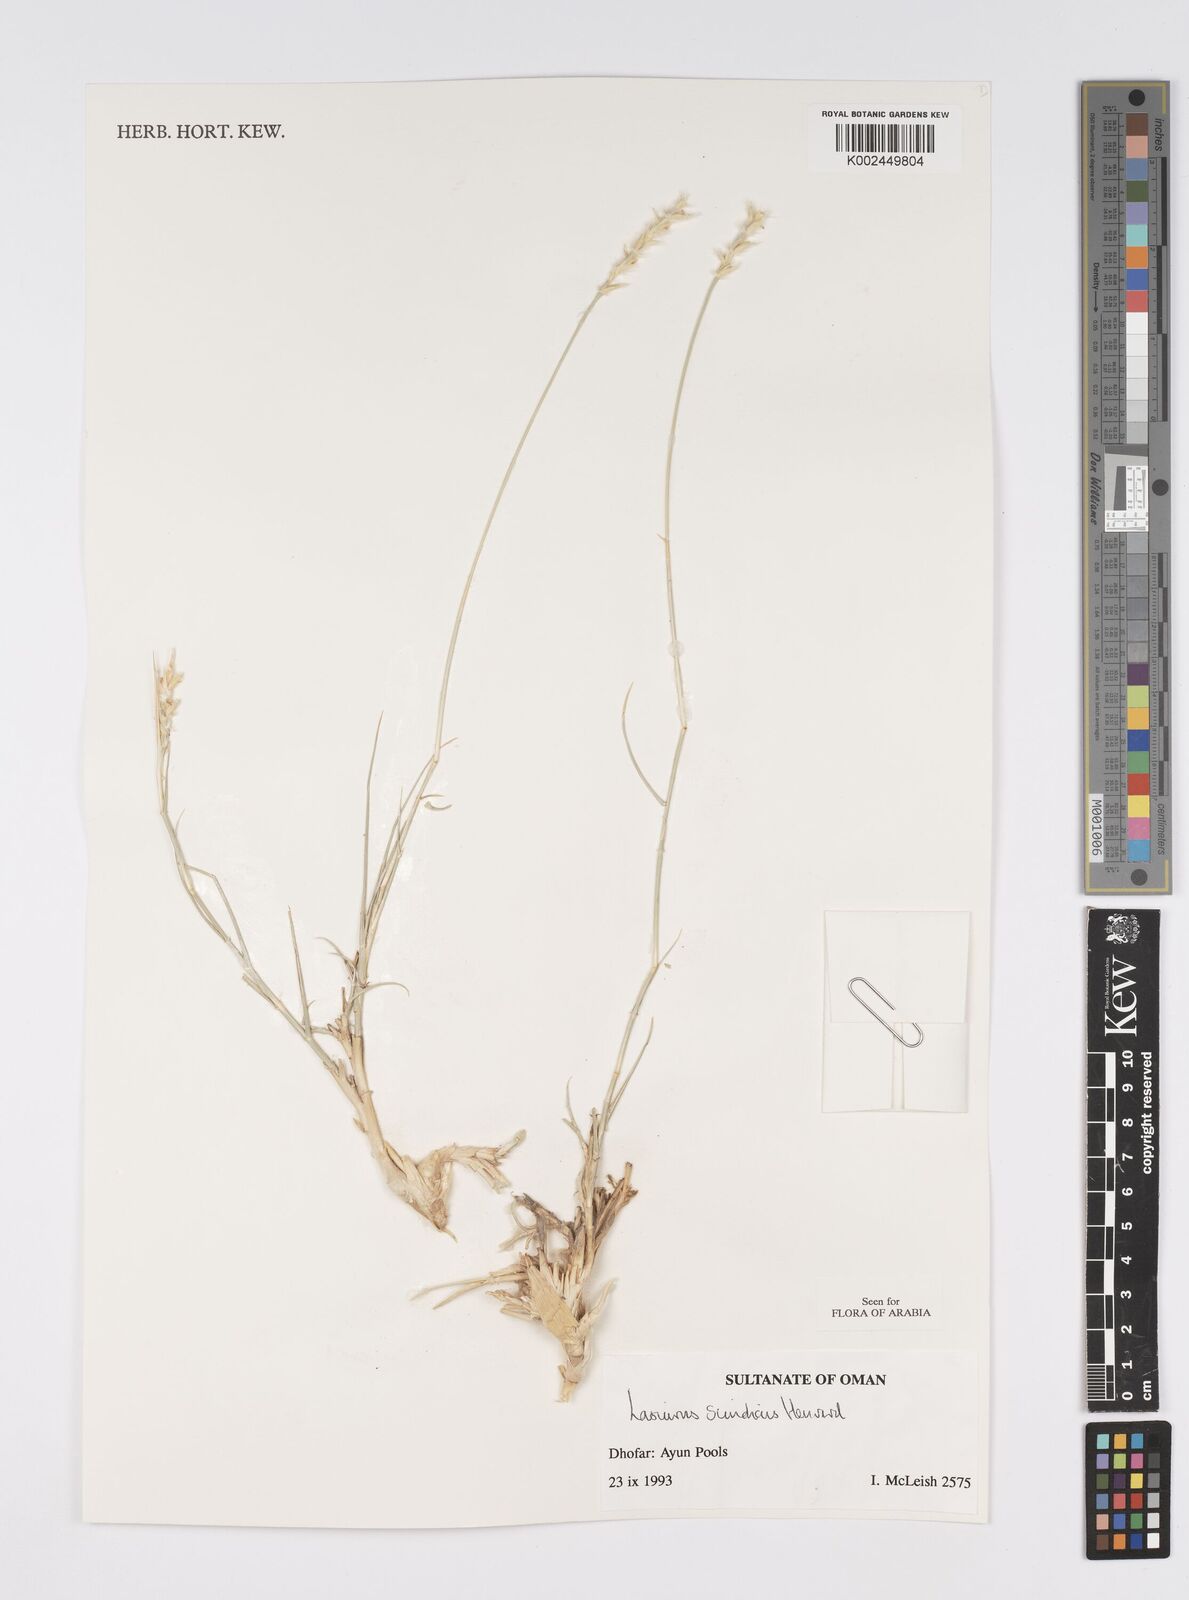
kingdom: Plantae
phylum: Tracheophyta
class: Liliopsida
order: Poales
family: Poaceae
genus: Lasiurus
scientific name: Lasiurus scindicus
